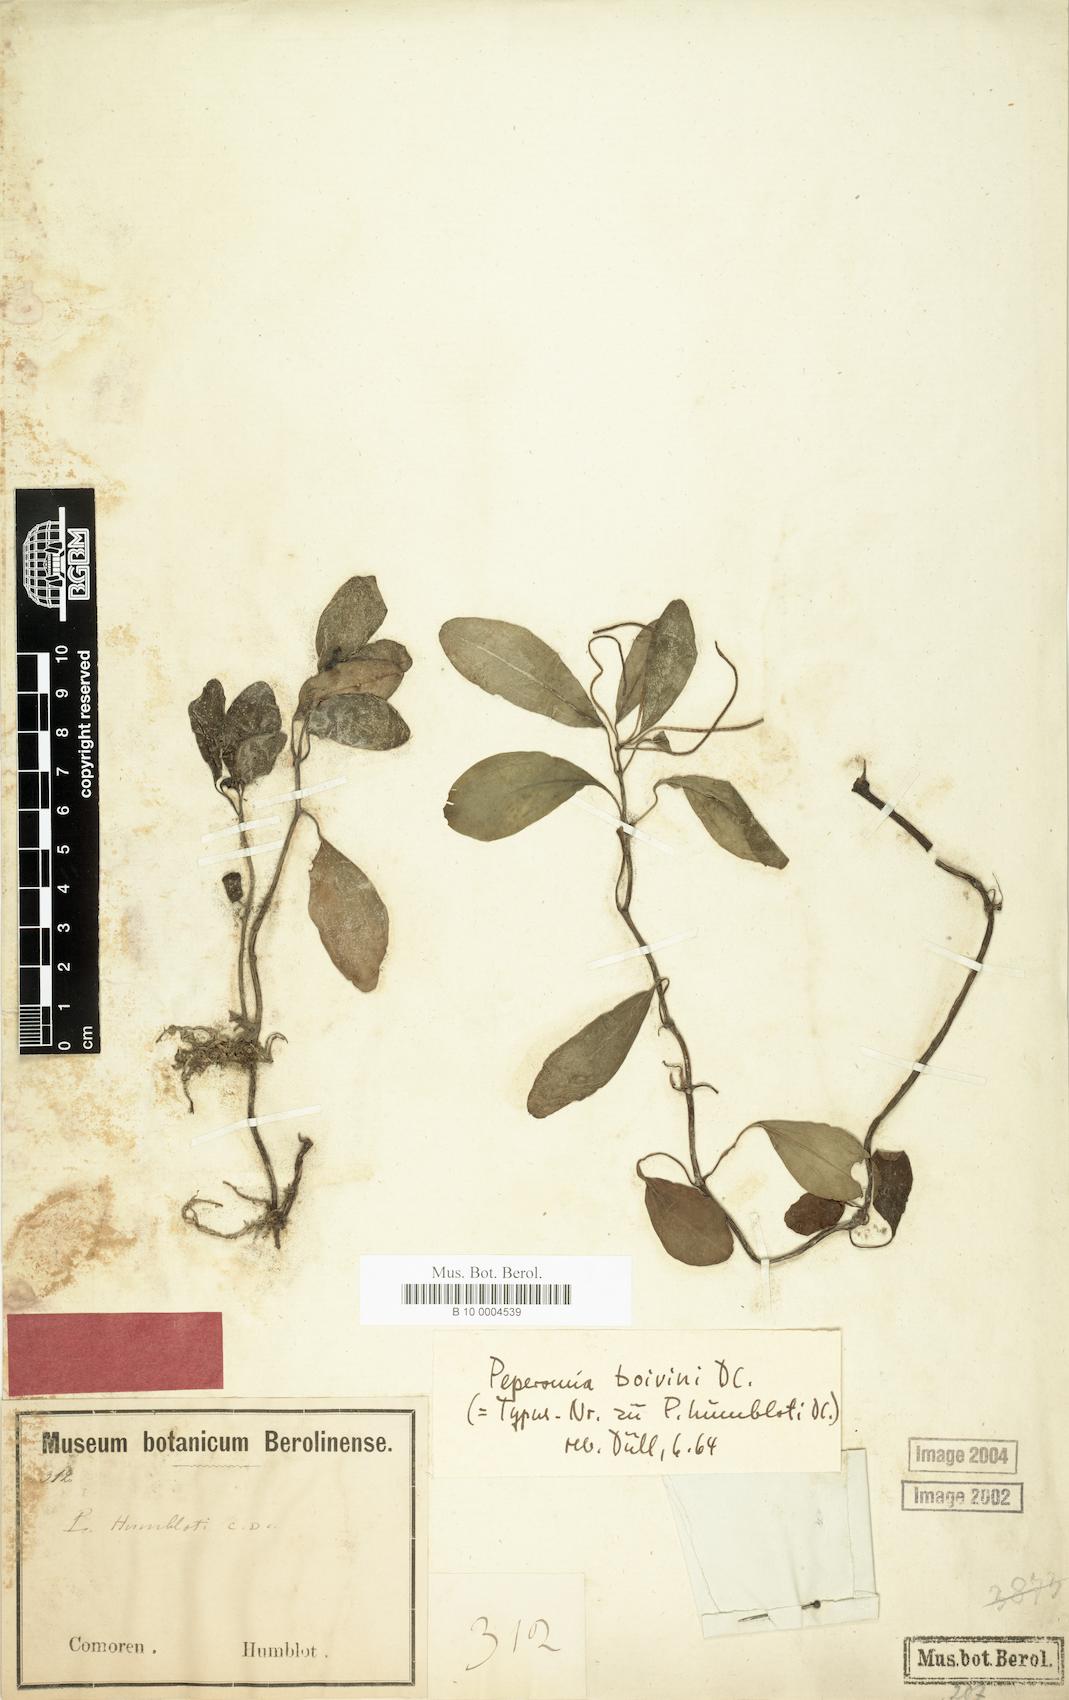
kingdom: Plantae
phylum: Tracheophyta
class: Magnoliopsida
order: Piperales
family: Piperaceae
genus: Peperomia
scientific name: Peperomia boivinii
